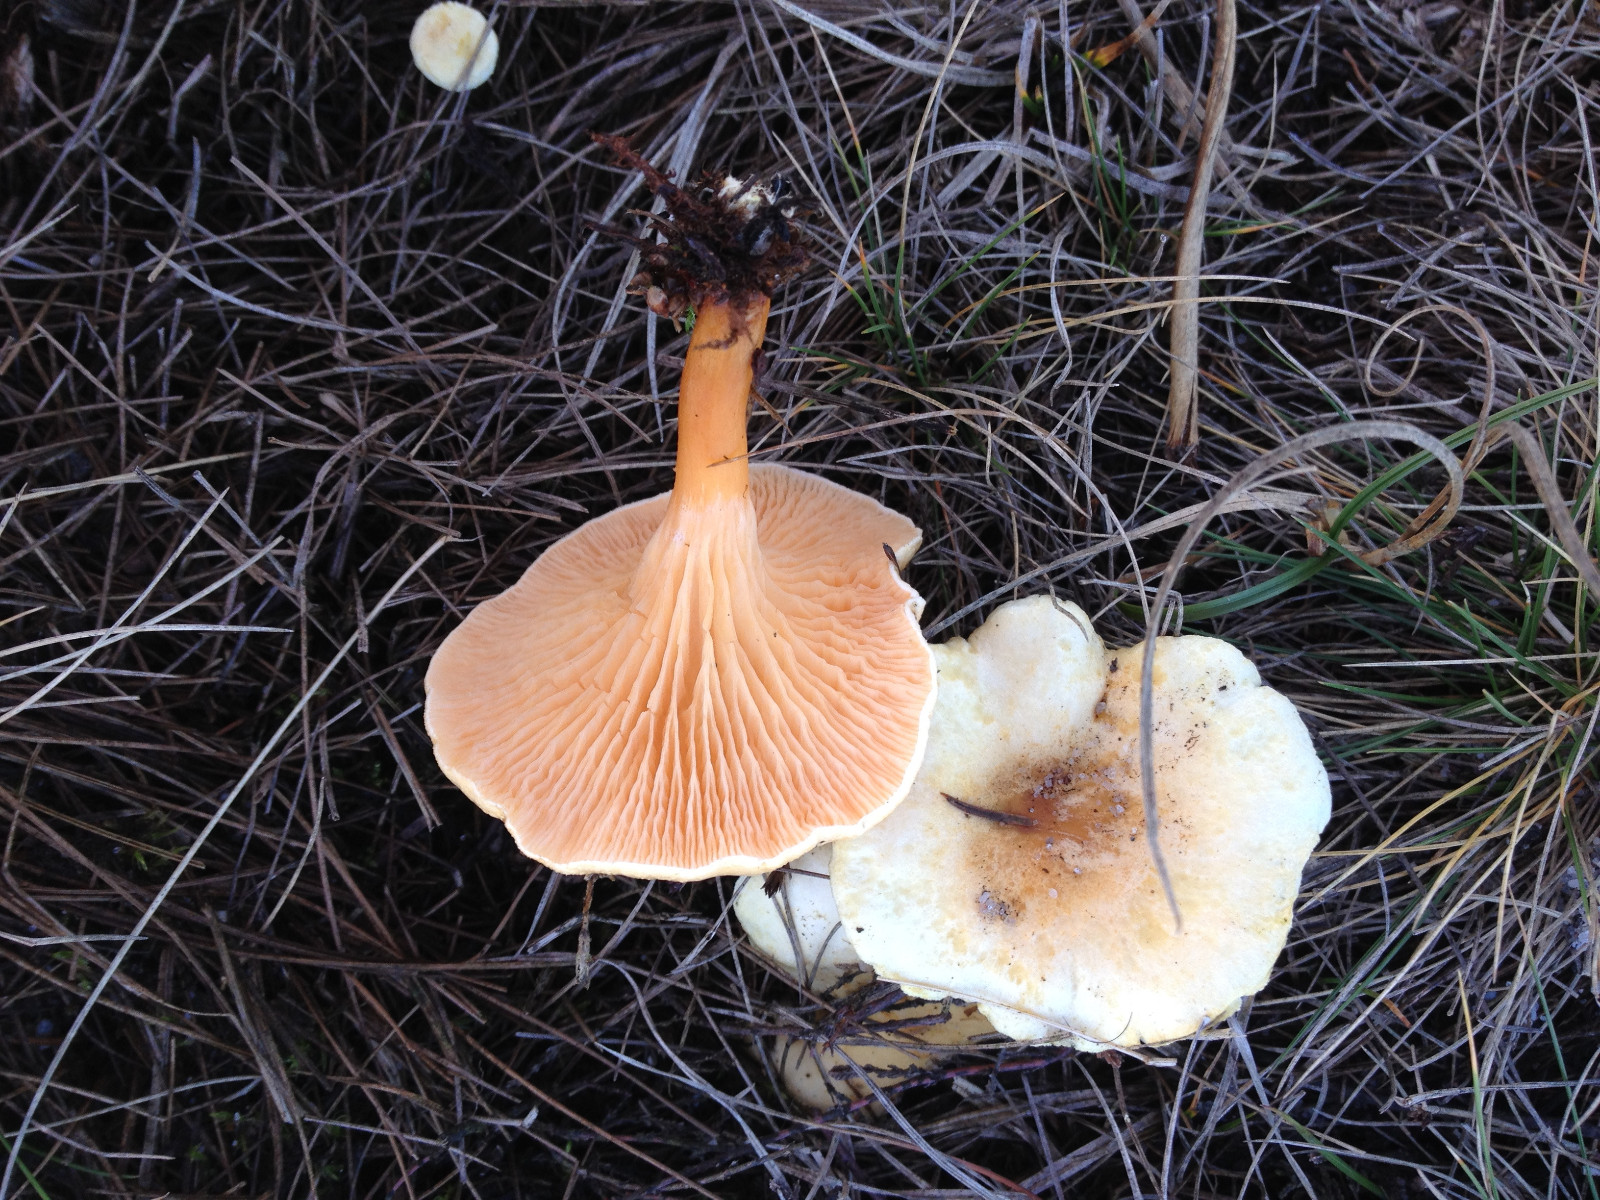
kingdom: Fungi
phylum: Basidiomycota
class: Agaricomycetes
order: Boletales
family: Hygrophoropsidaceae
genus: Hygrophoropsis
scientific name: Hygrophoropsis pallida
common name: bleg orangekantarel
